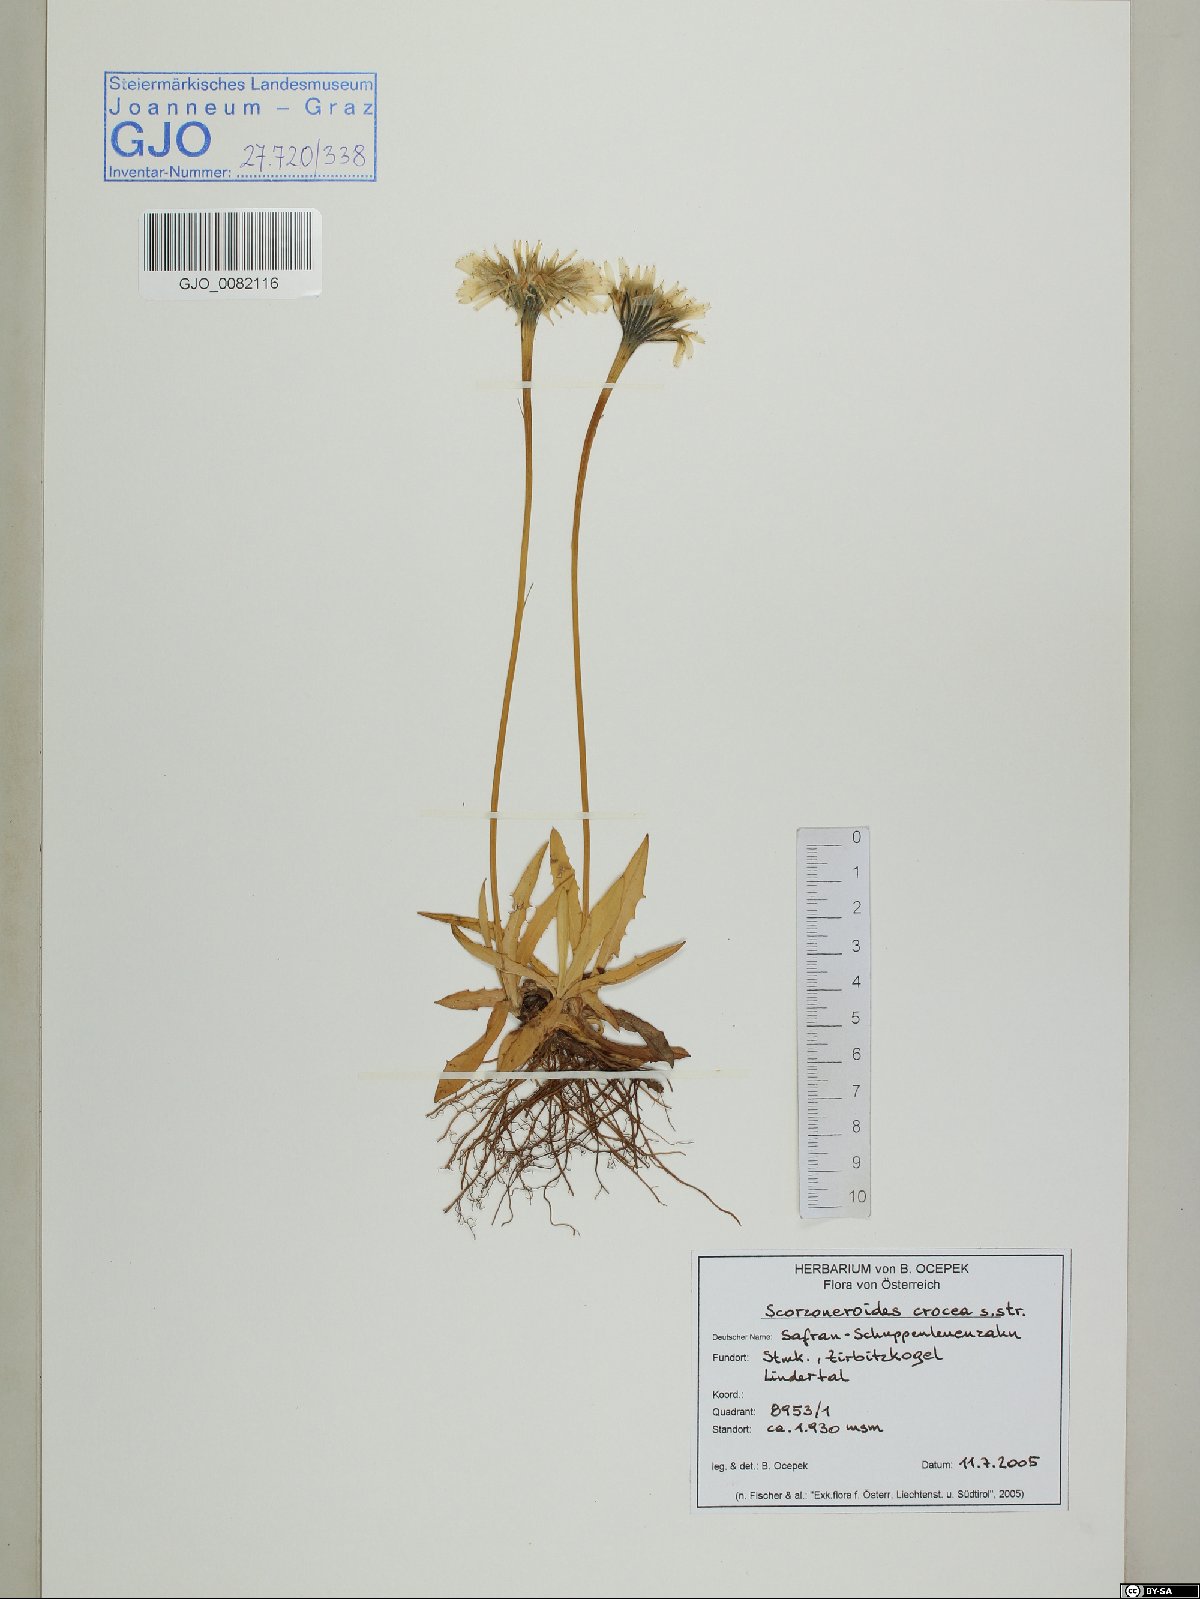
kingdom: Plantae
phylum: Tracheophyta
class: Magnoliopsida
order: Asterales
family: Asteraceae
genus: Scorzoneroides
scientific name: Scorzoneroides crocea
